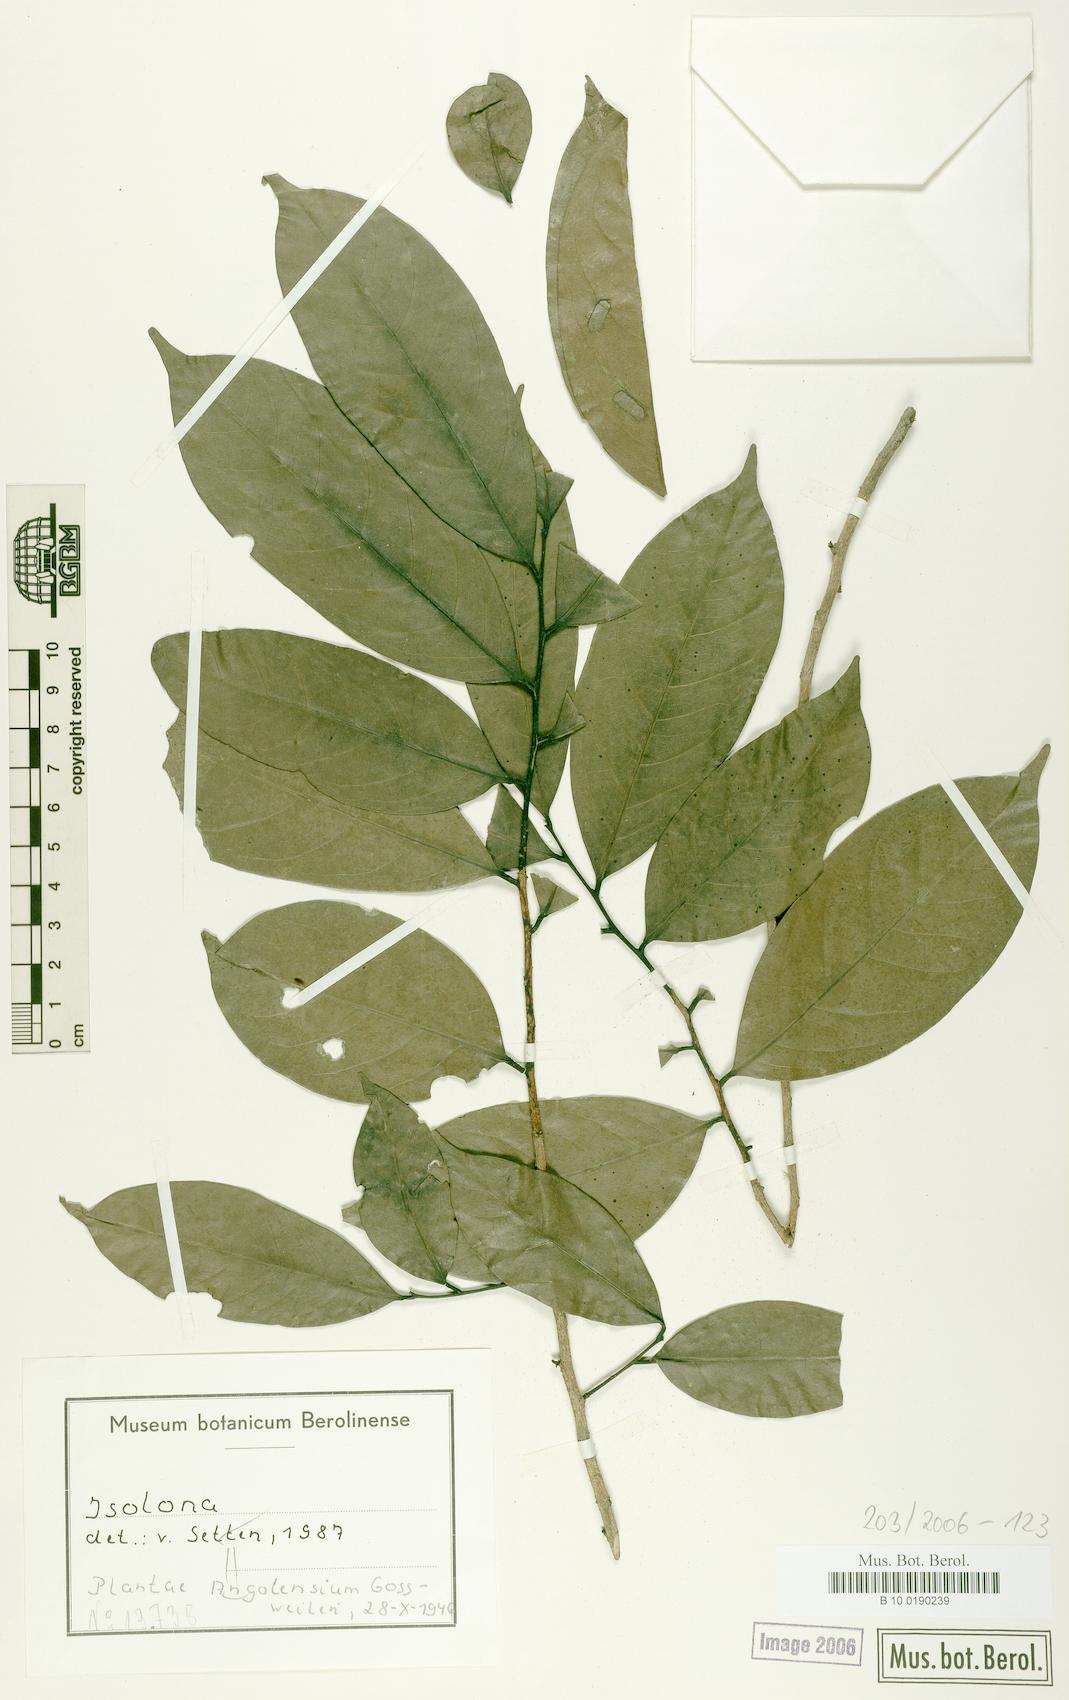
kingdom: Plantae
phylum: Tracheophyta
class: Magnoliopsida
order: Magnoliales
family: Annonaceae
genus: Isolona
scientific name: Isolona
